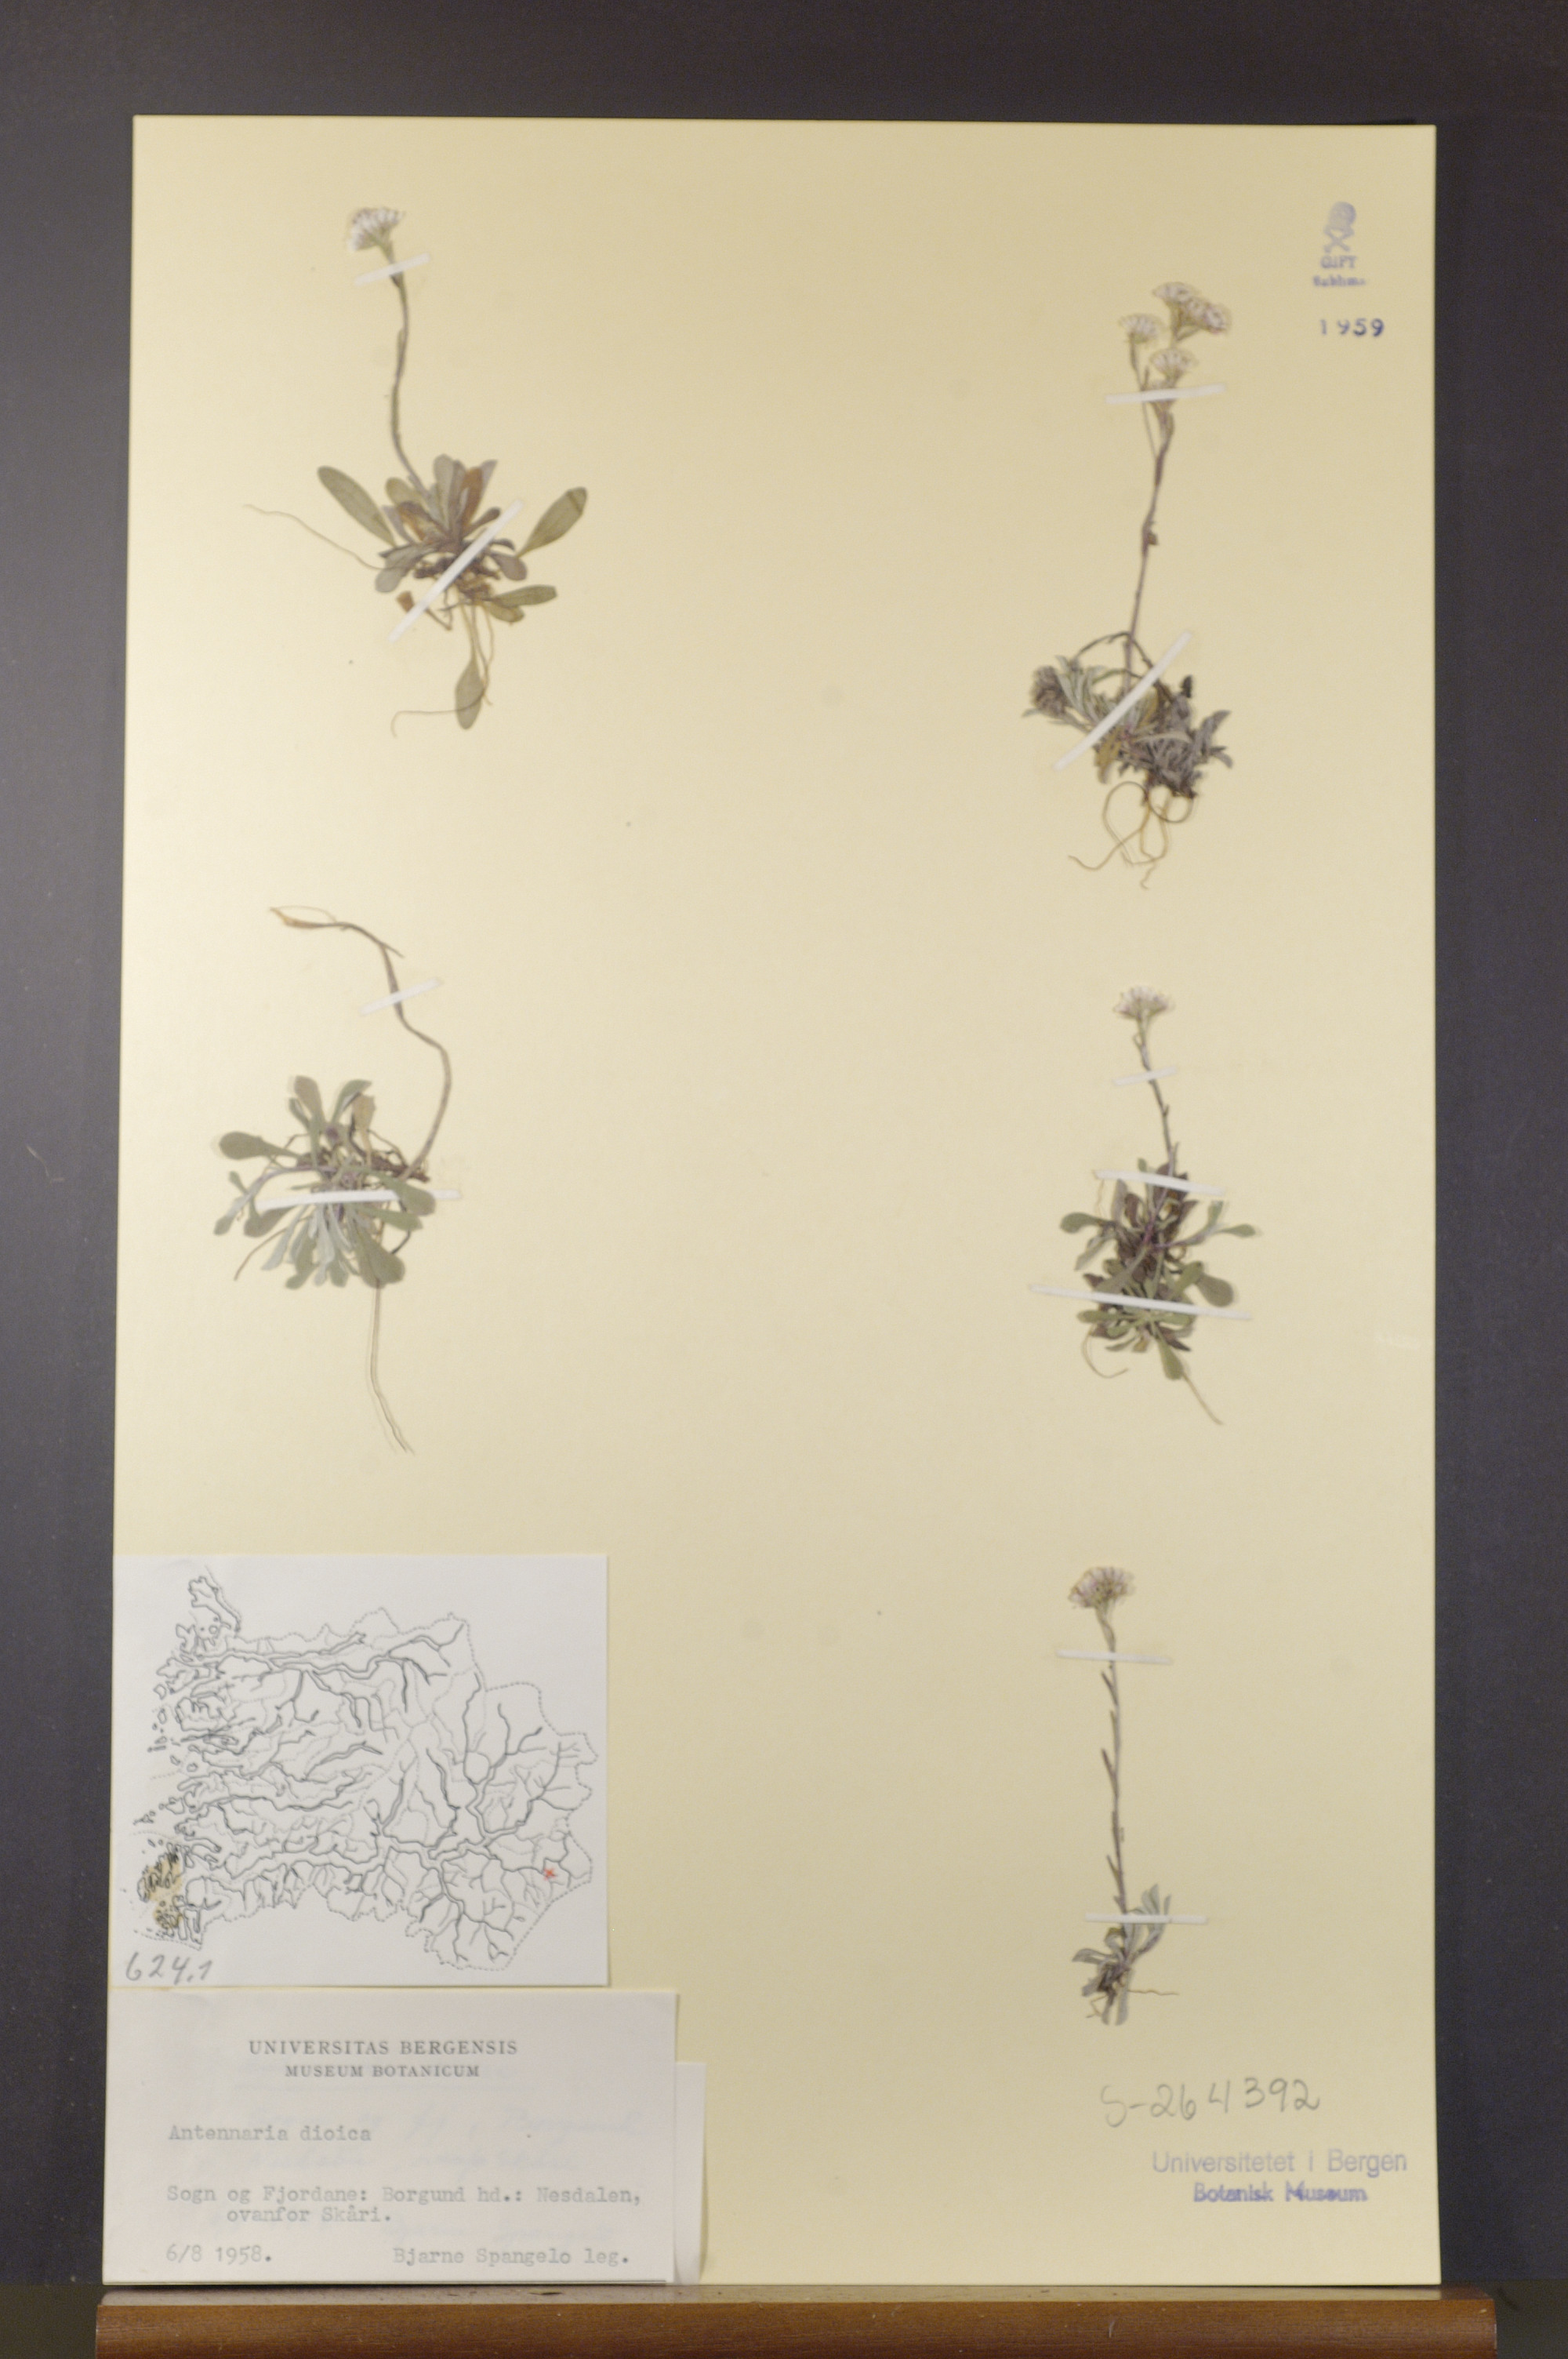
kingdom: Plantae
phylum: Tracheophyta
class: Magnoliopsida
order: Asterales
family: Asteraceae
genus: Antennaria
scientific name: Antennaria dioica
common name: Mountain everlasting
